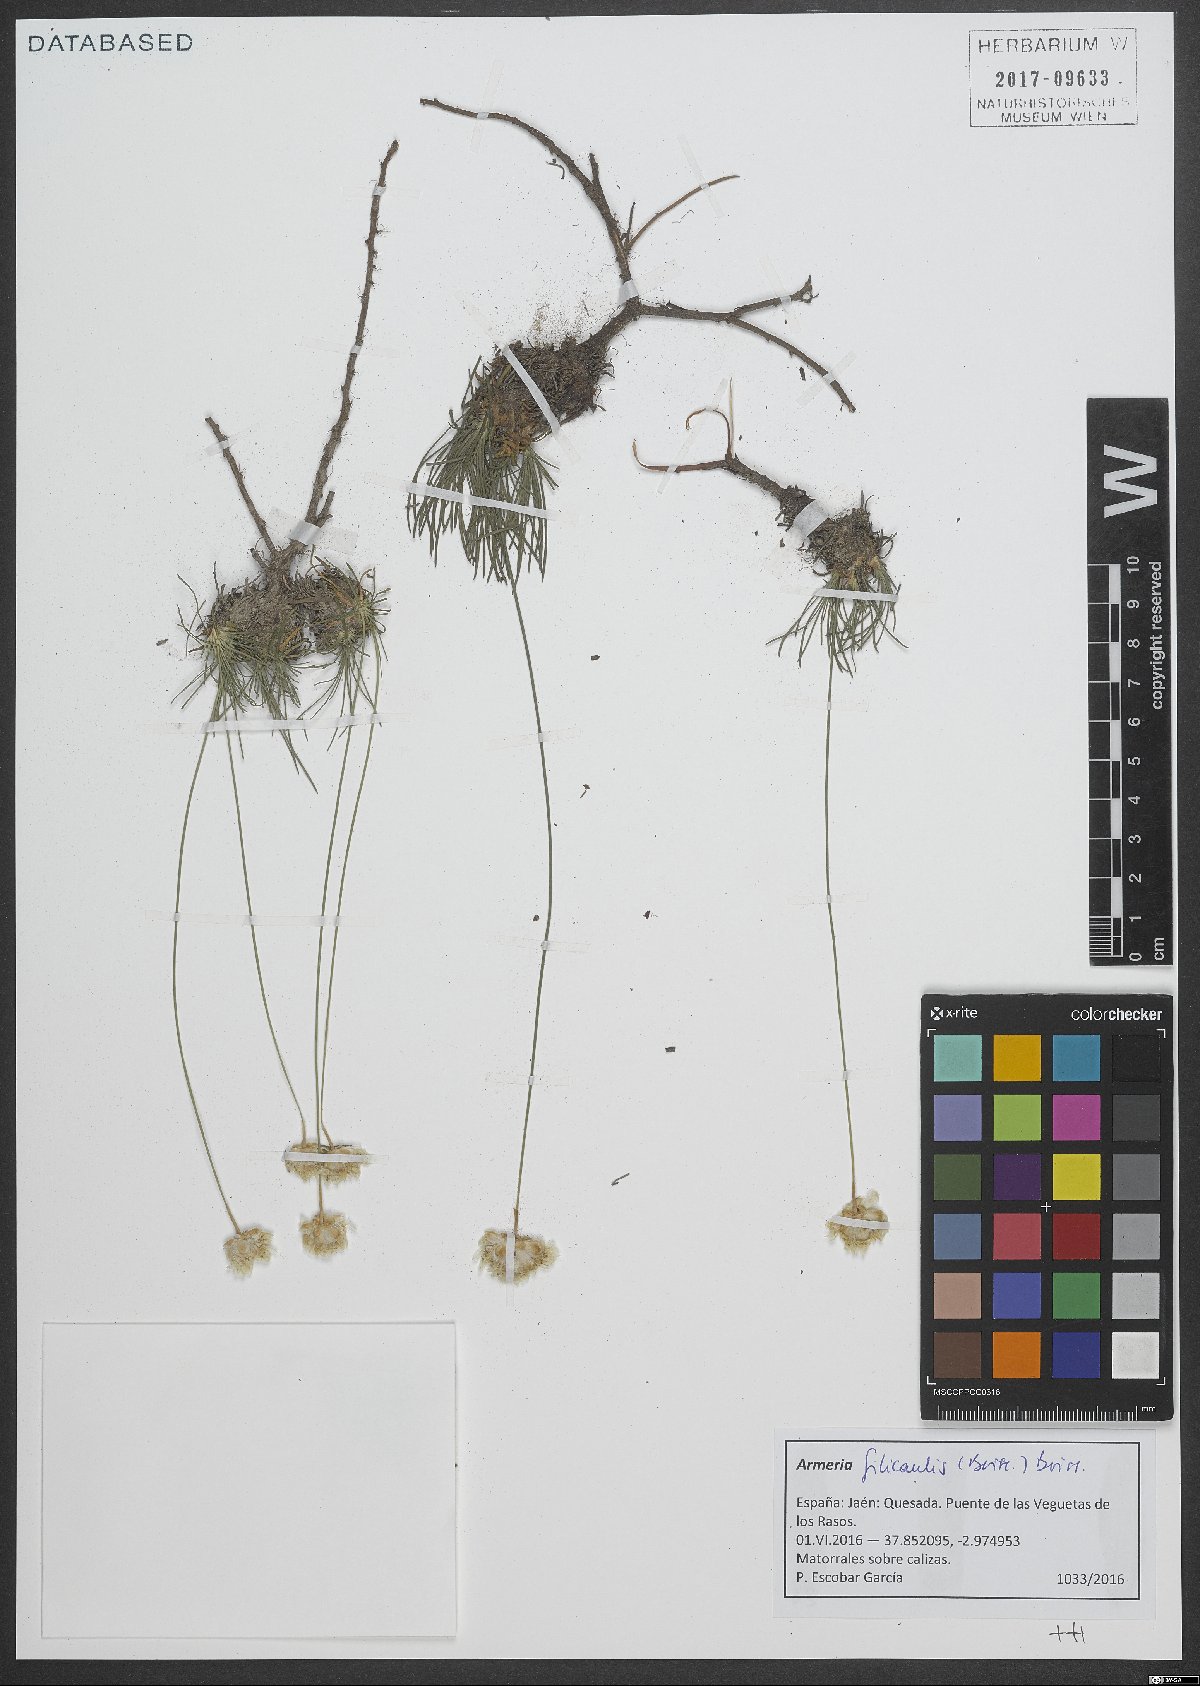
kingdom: Plantae
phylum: Tracheophyta
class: Magnoliopsida
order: Caryophyllales
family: Plumbaginaceae
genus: Armeria
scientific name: Armeria filicaulis
